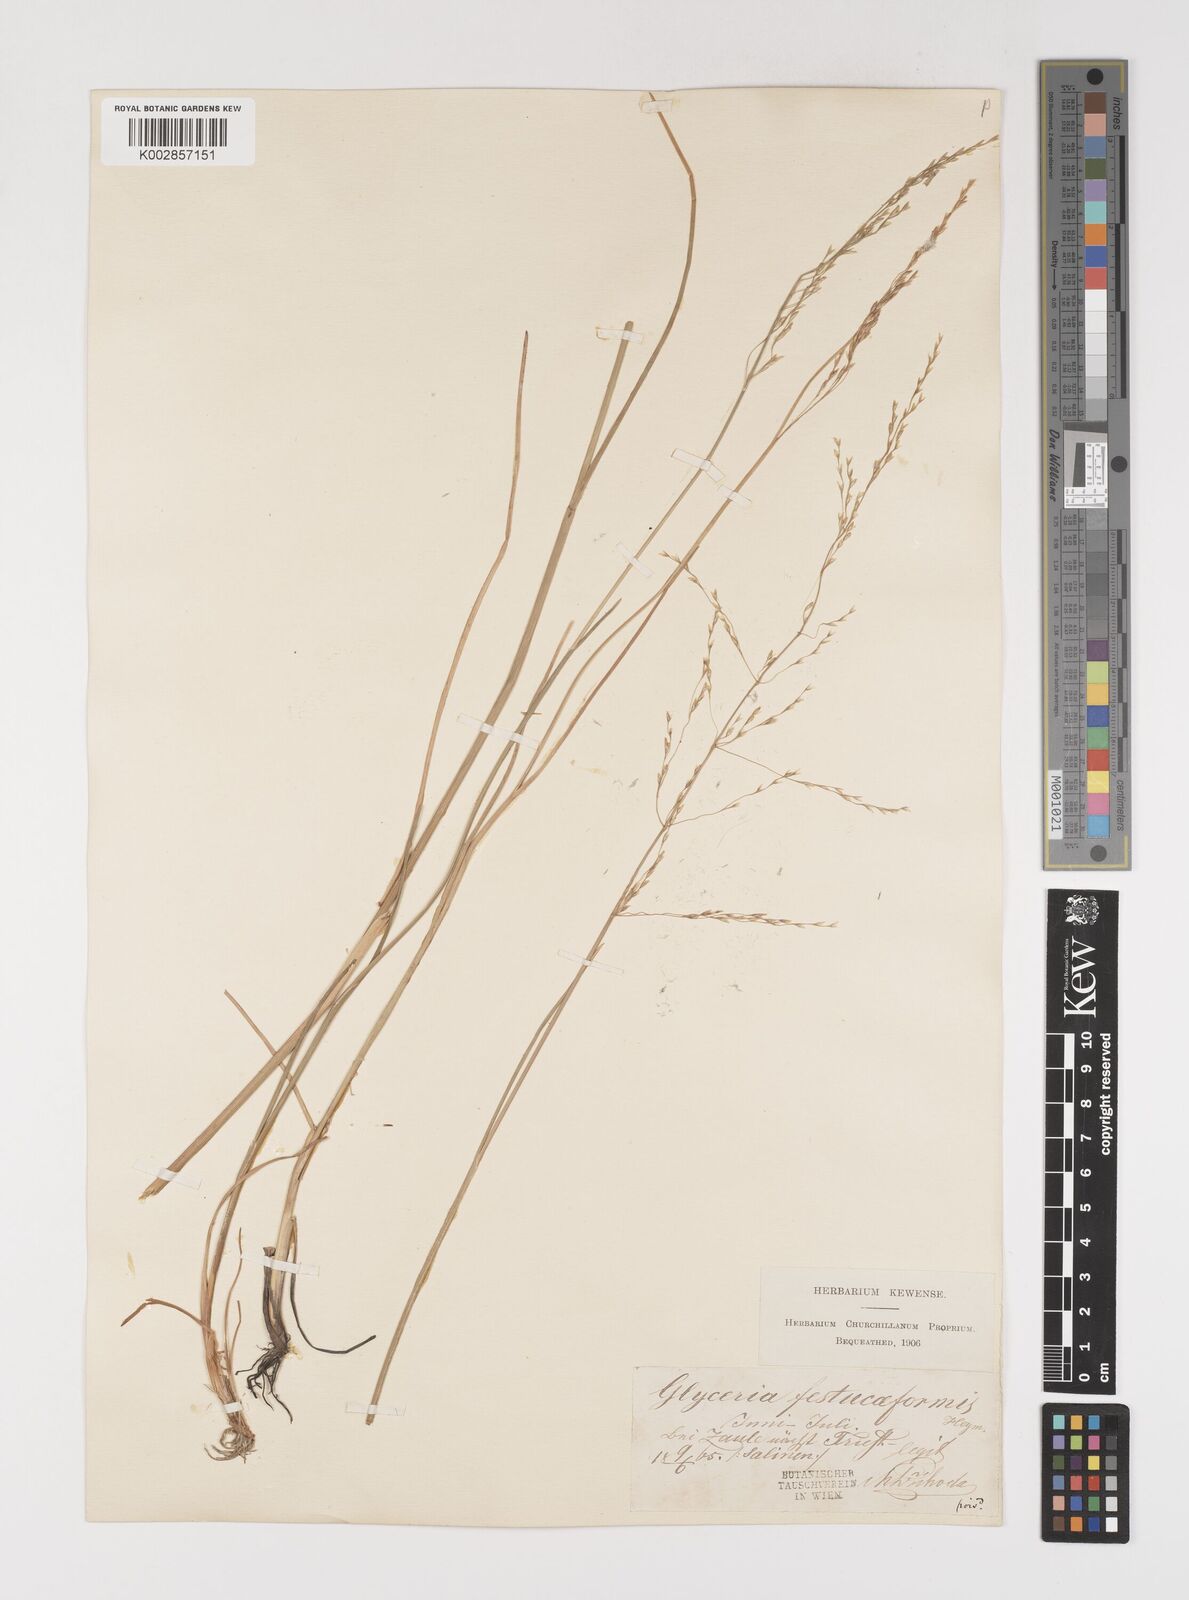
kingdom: Plantae
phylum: Tracheophyta
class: Liliopsida
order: Poales
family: Poaceae
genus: Puccinellia
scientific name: Puccinellia festuciformis
